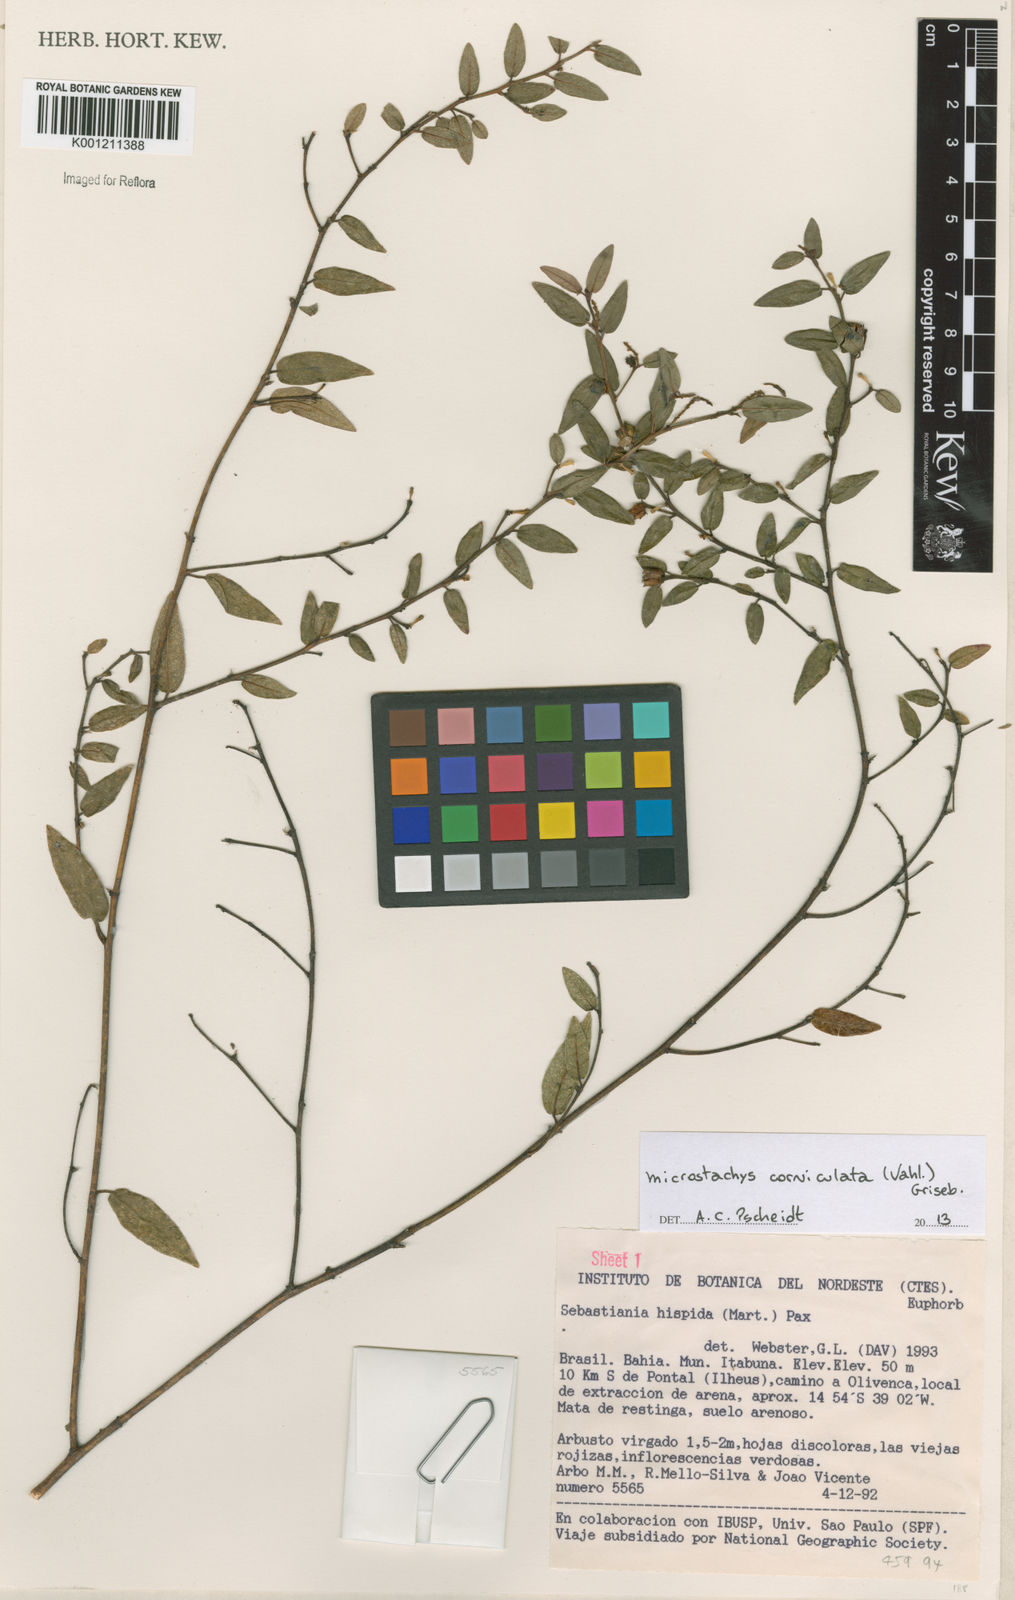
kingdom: Plantae
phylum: Tracheophyta
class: Magnoliopsida
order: Malpighiales
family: Euphorbiaceae
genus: Microstachys
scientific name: Microstachys corniculata
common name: Hato tejas
